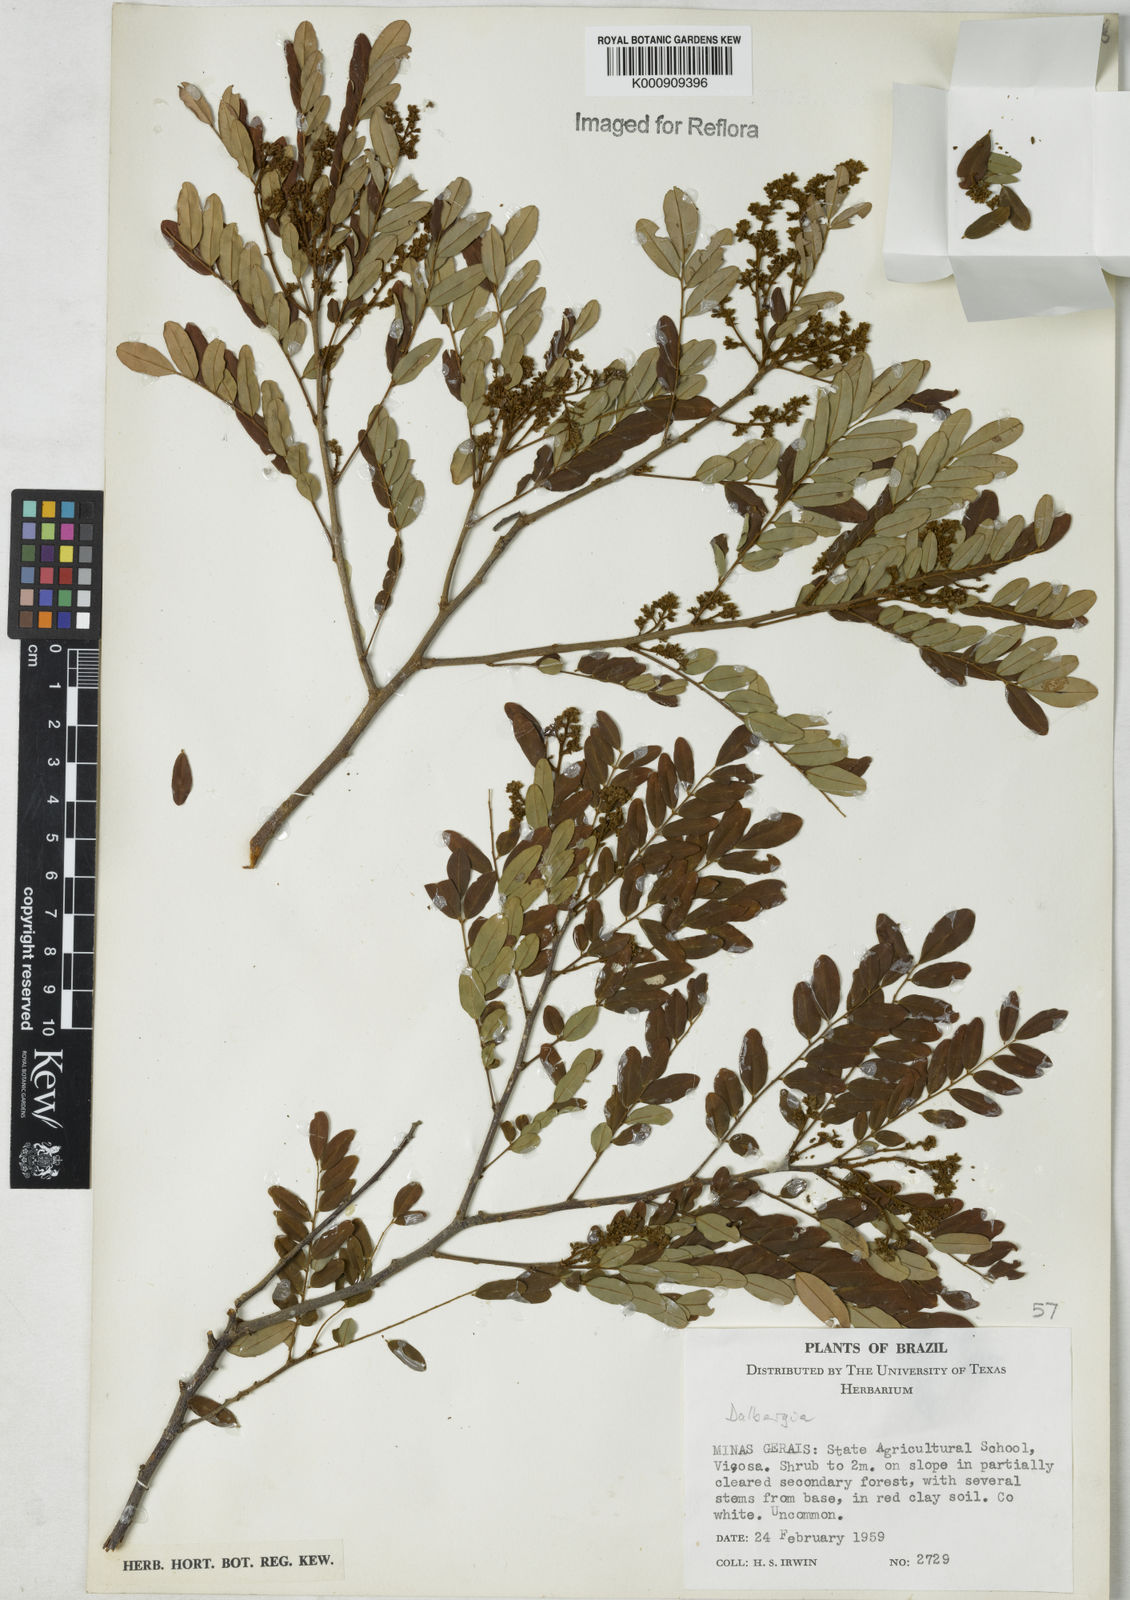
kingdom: Plantae
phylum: Tracheophyta
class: Magnoliopsida
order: Fabales
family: Fabaceae
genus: Dalbergia
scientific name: Dalbergia
